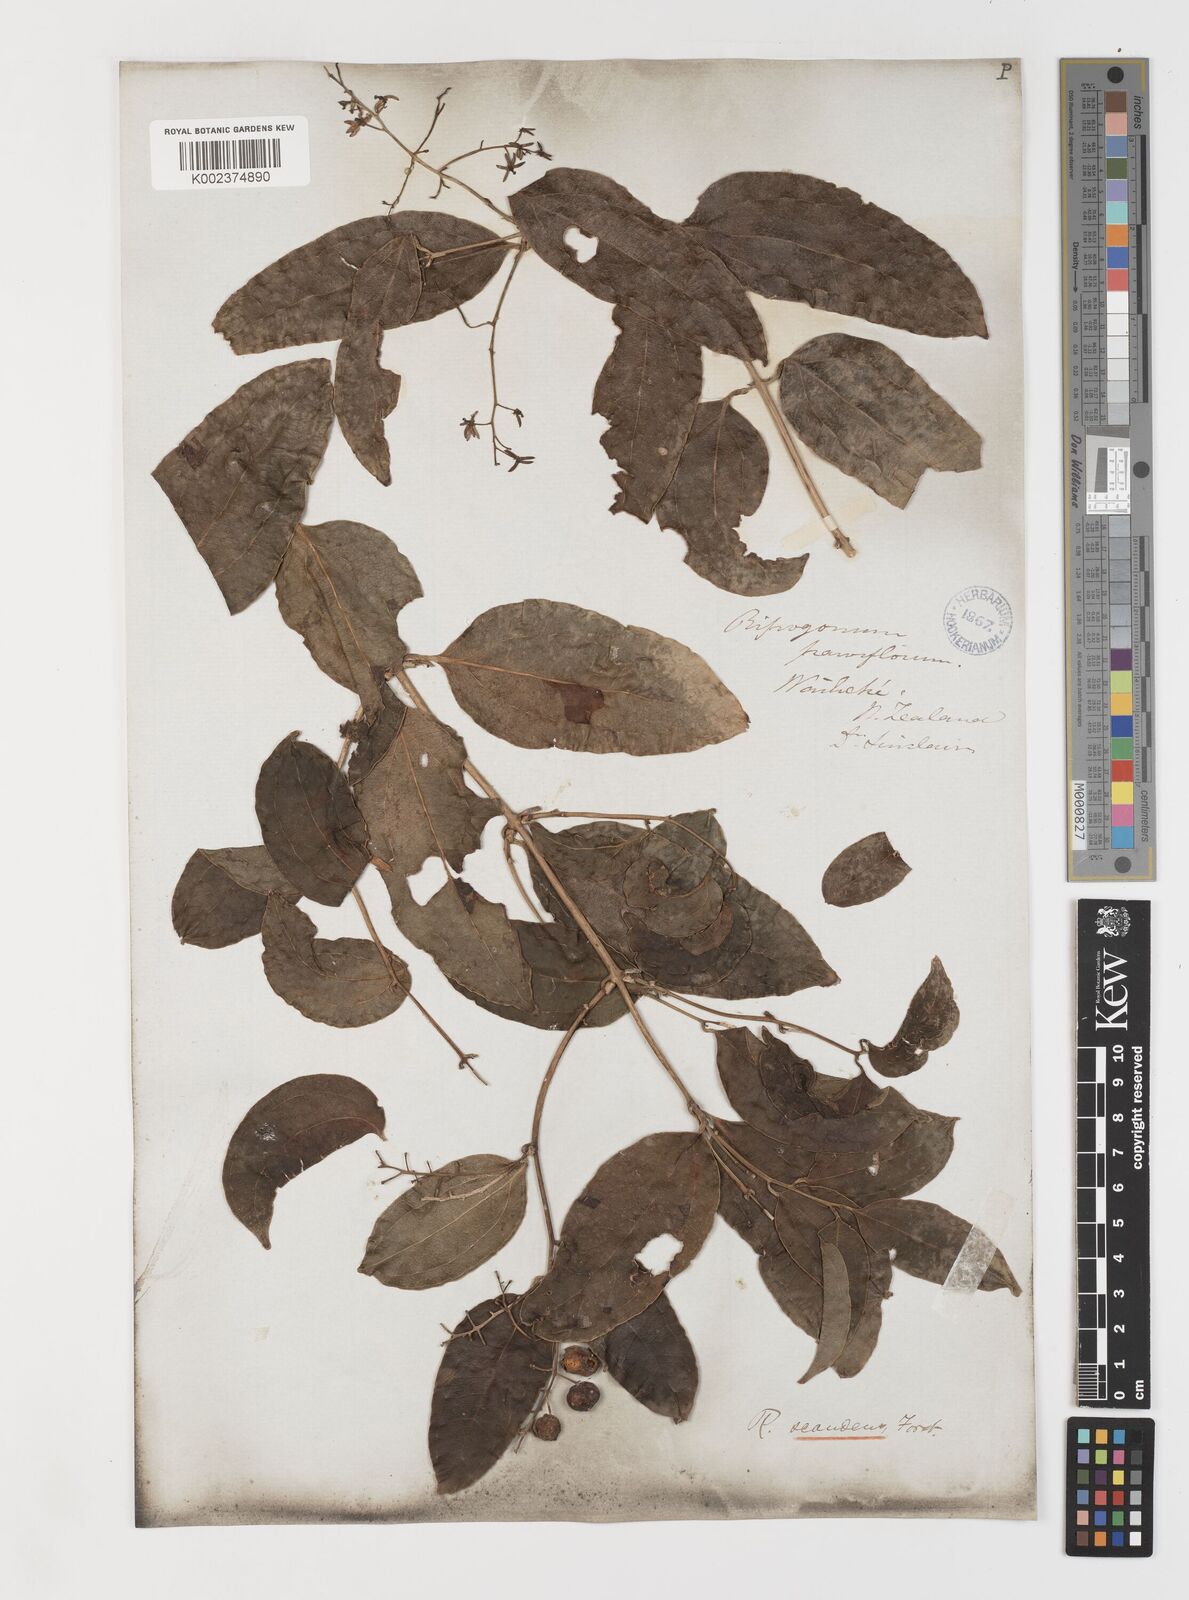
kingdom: Plantae
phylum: Tracheophyta
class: Liliopsida
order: Liliales
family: Ripogonaceae
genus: Ripogonum
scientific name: Ripogonum scandens
